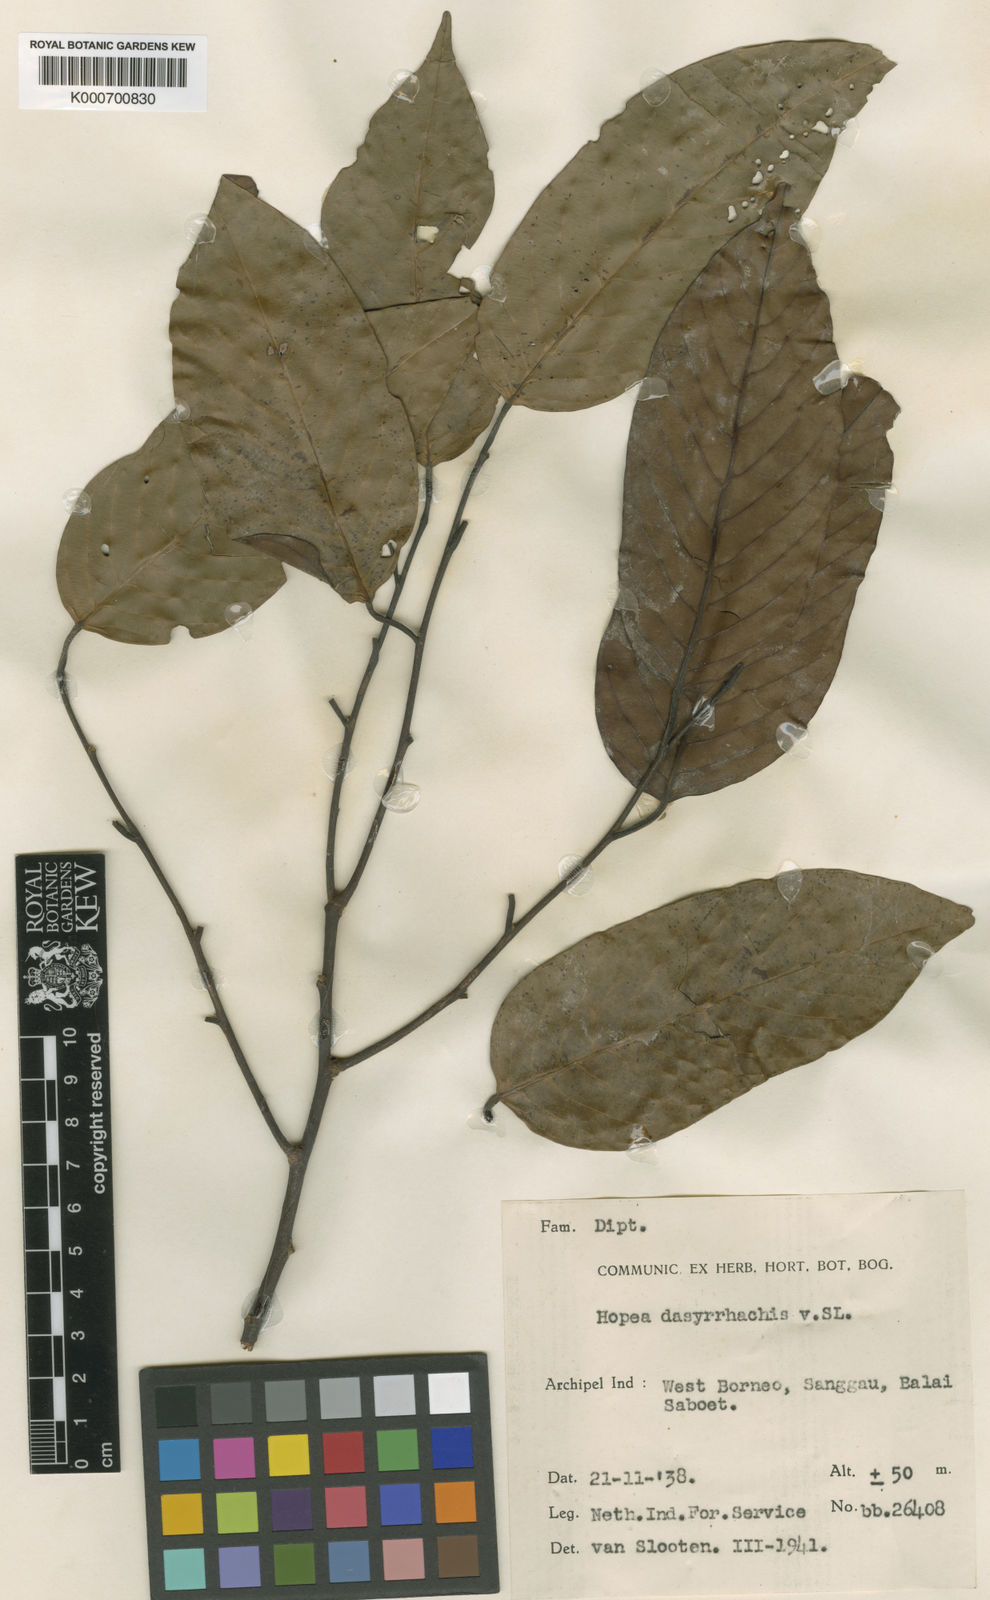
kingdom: Plantae
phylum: Tracheophyta
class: Magnoliopsida
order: Malvales
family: Dipterocarpaceae
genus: Hopea
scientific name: Hopea dasyrrhachis
